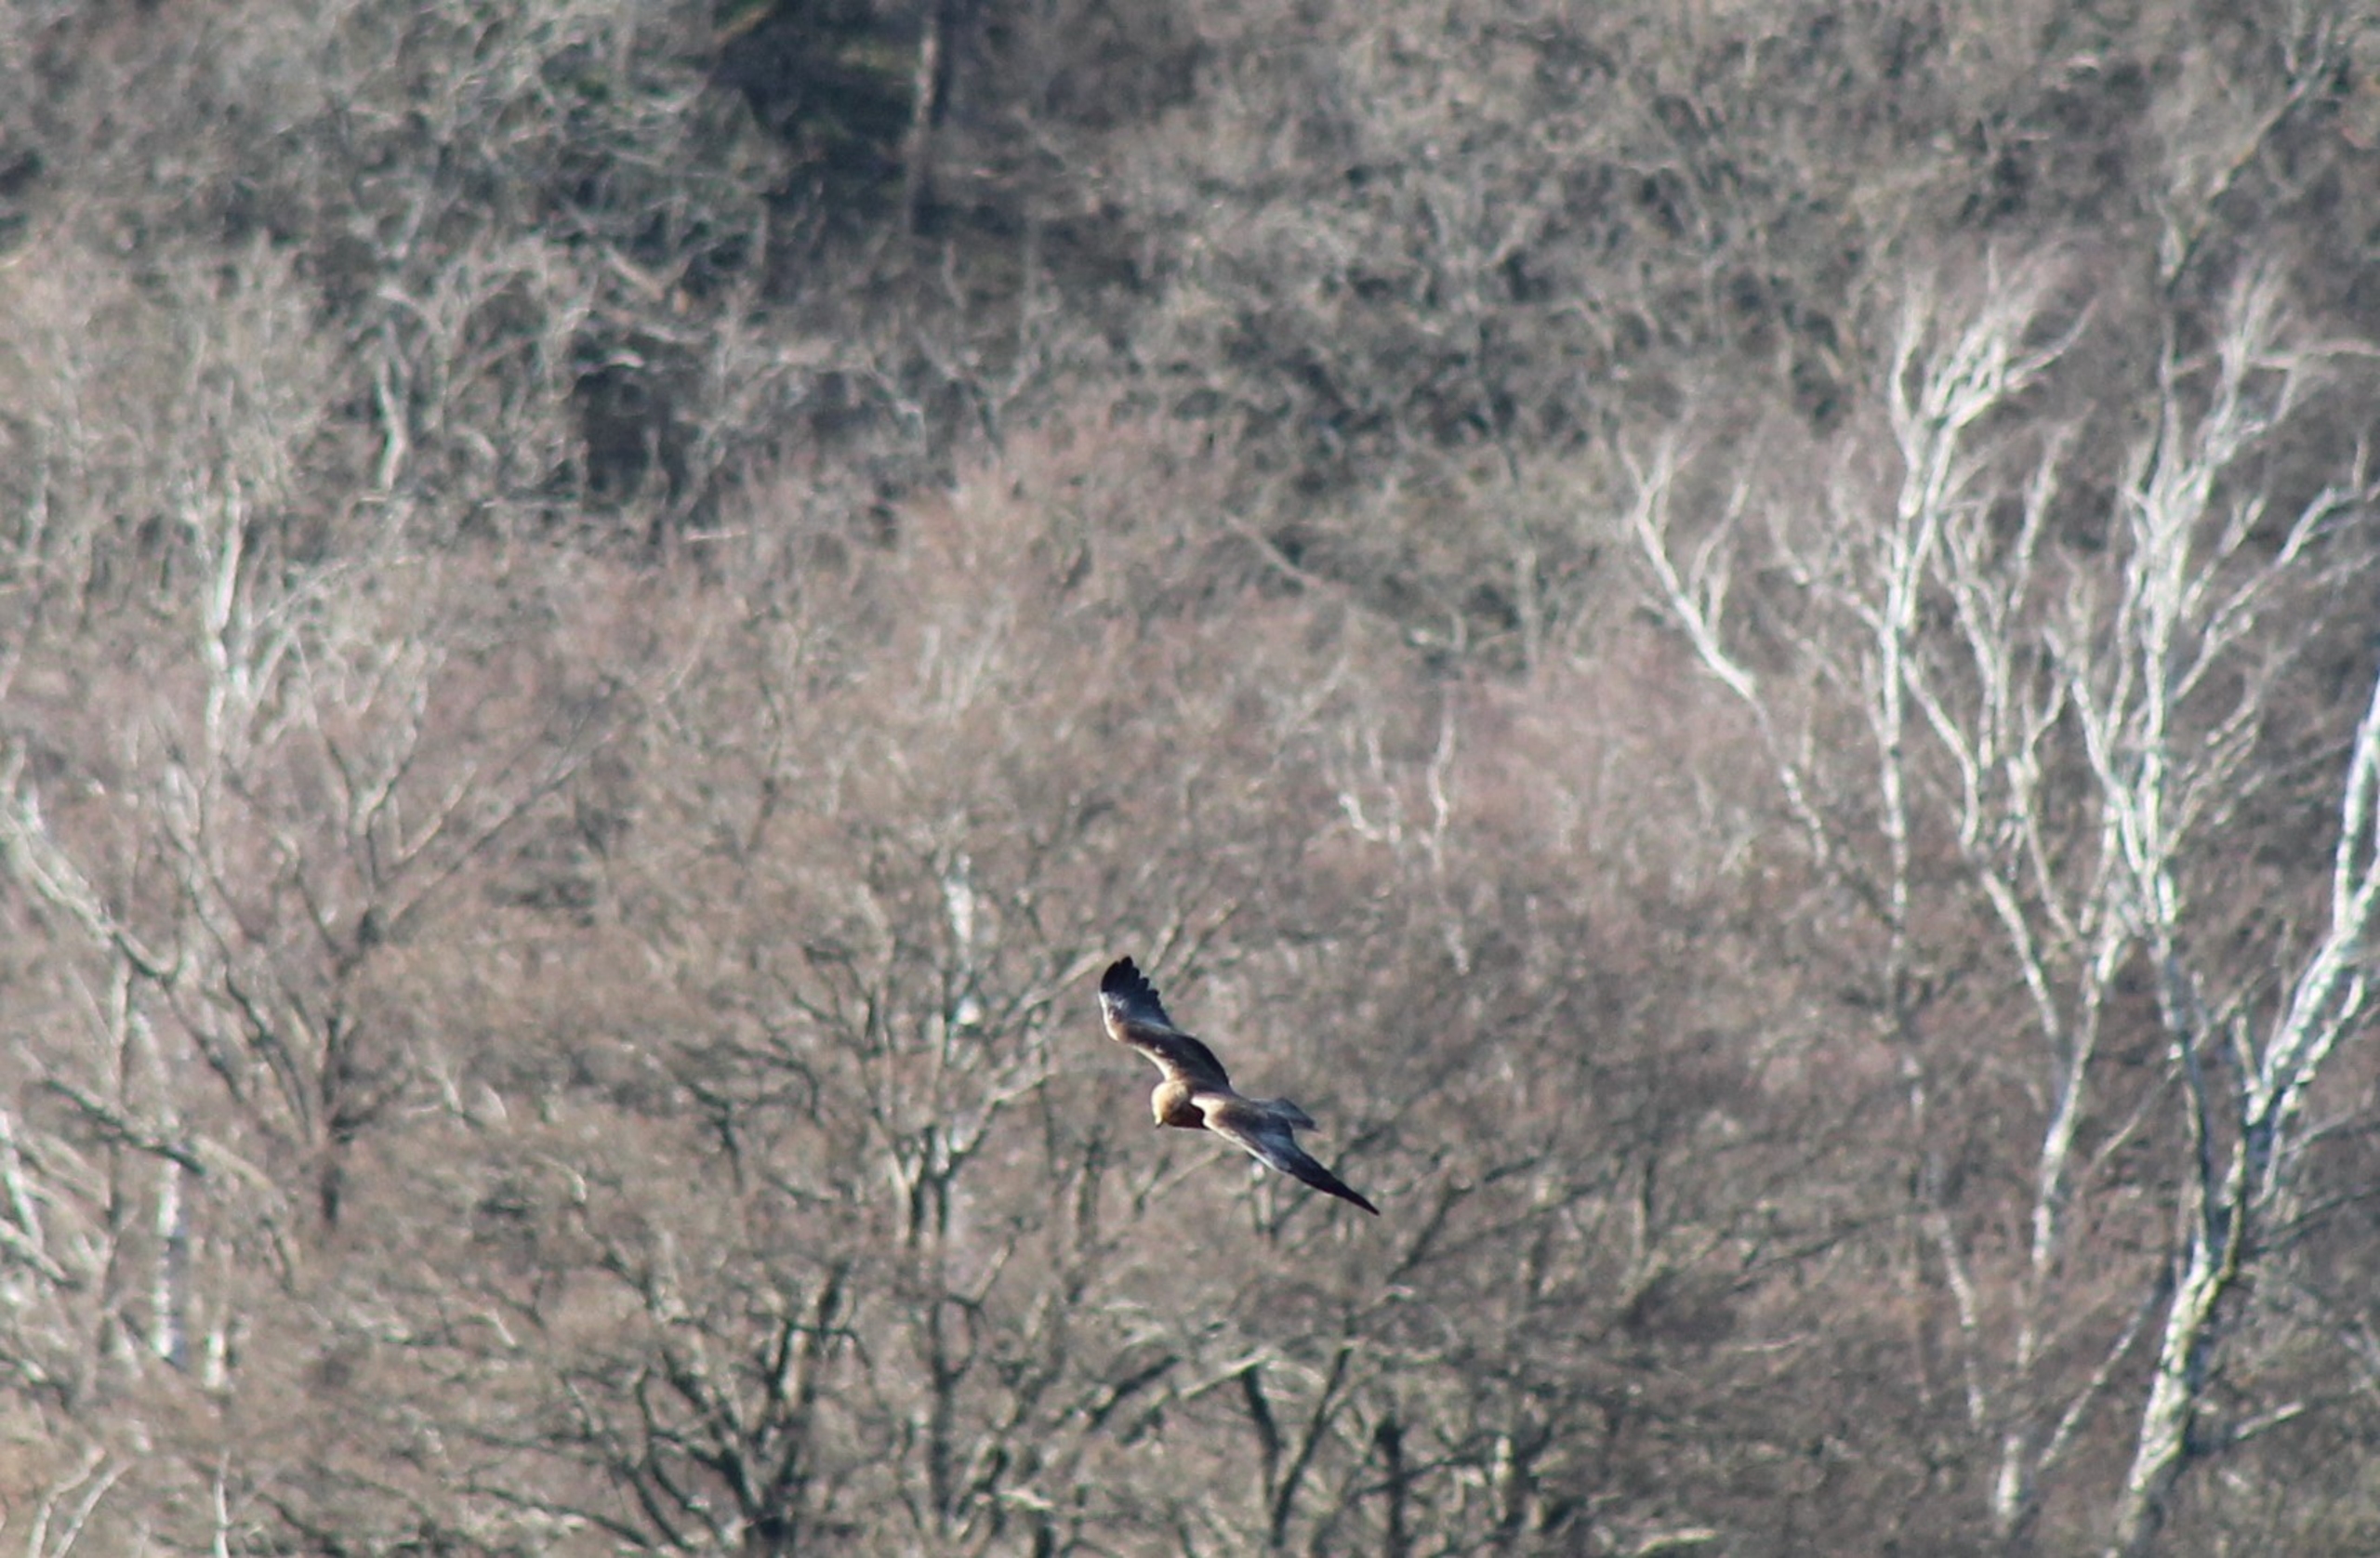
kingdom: Animalia
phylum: Chordata
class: Aves
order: Accipitriformes
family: Accipitridae
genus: Circus
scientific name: Circus aeruginosus
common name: Rørhøg
